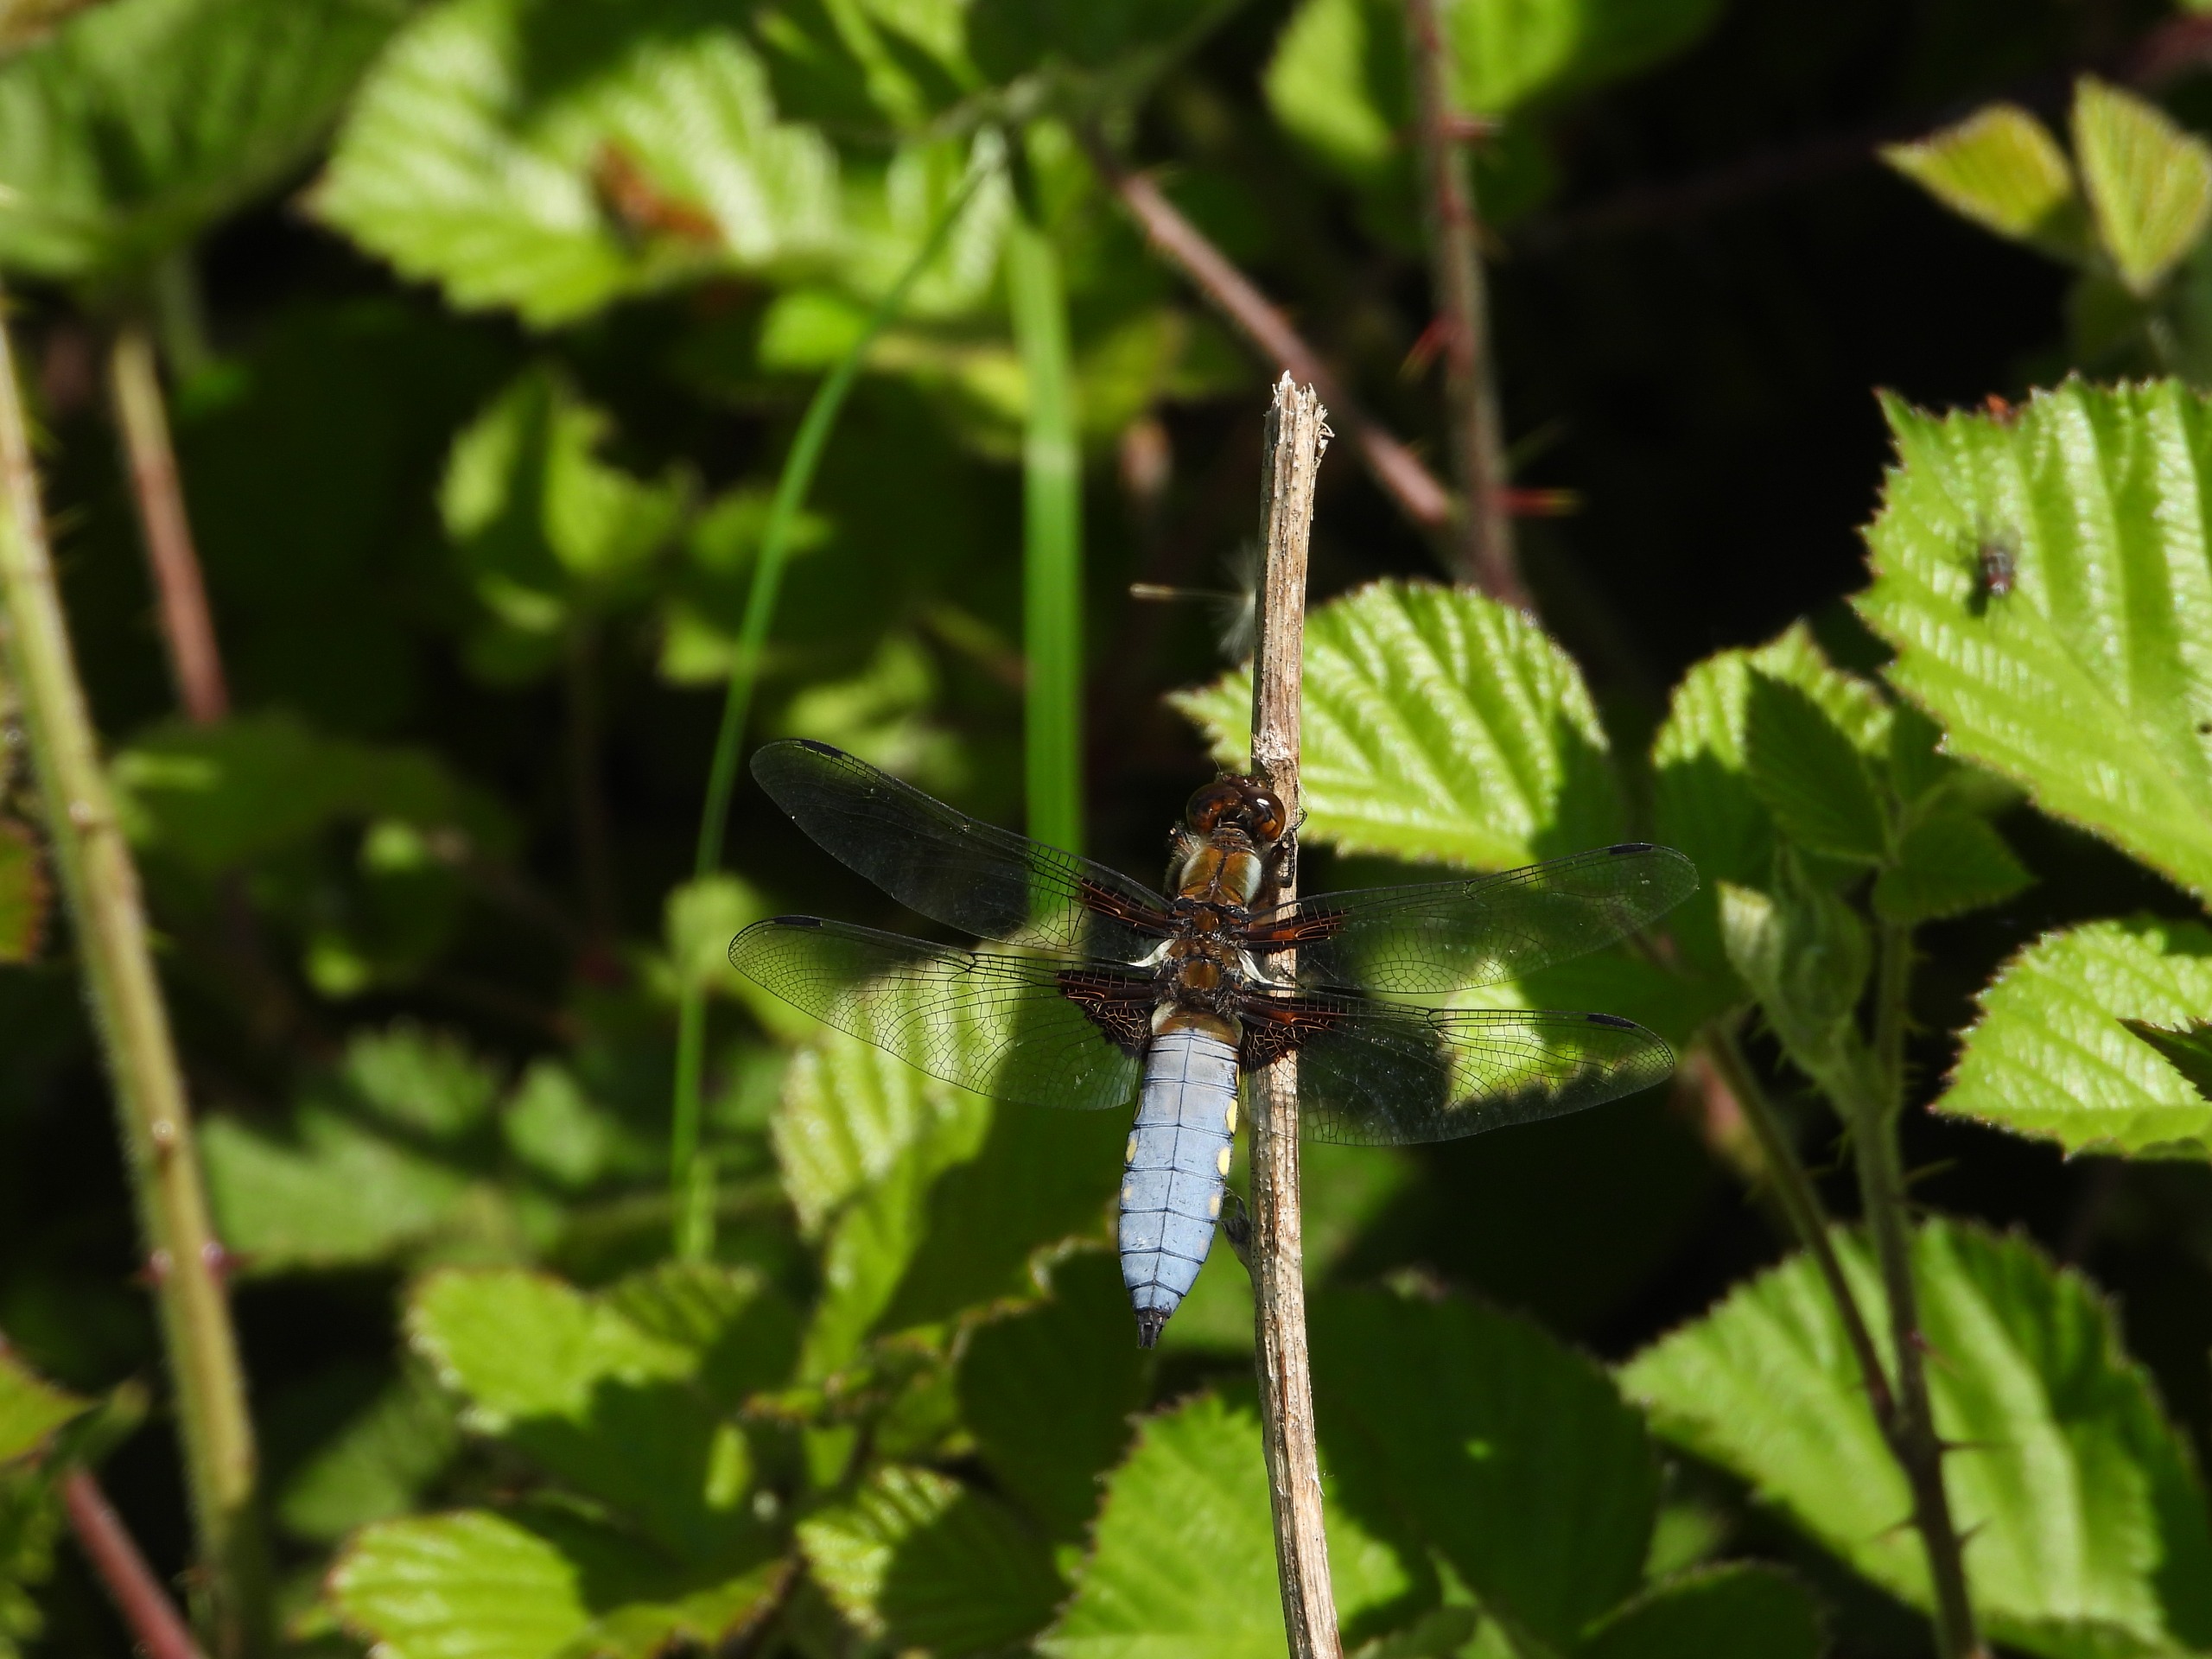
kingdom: Animalia
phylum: Arthropoda
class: Insecta
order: Odonata
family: Libellulidae
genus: Libellula
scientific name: Libellula depressa
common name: Blå libel
